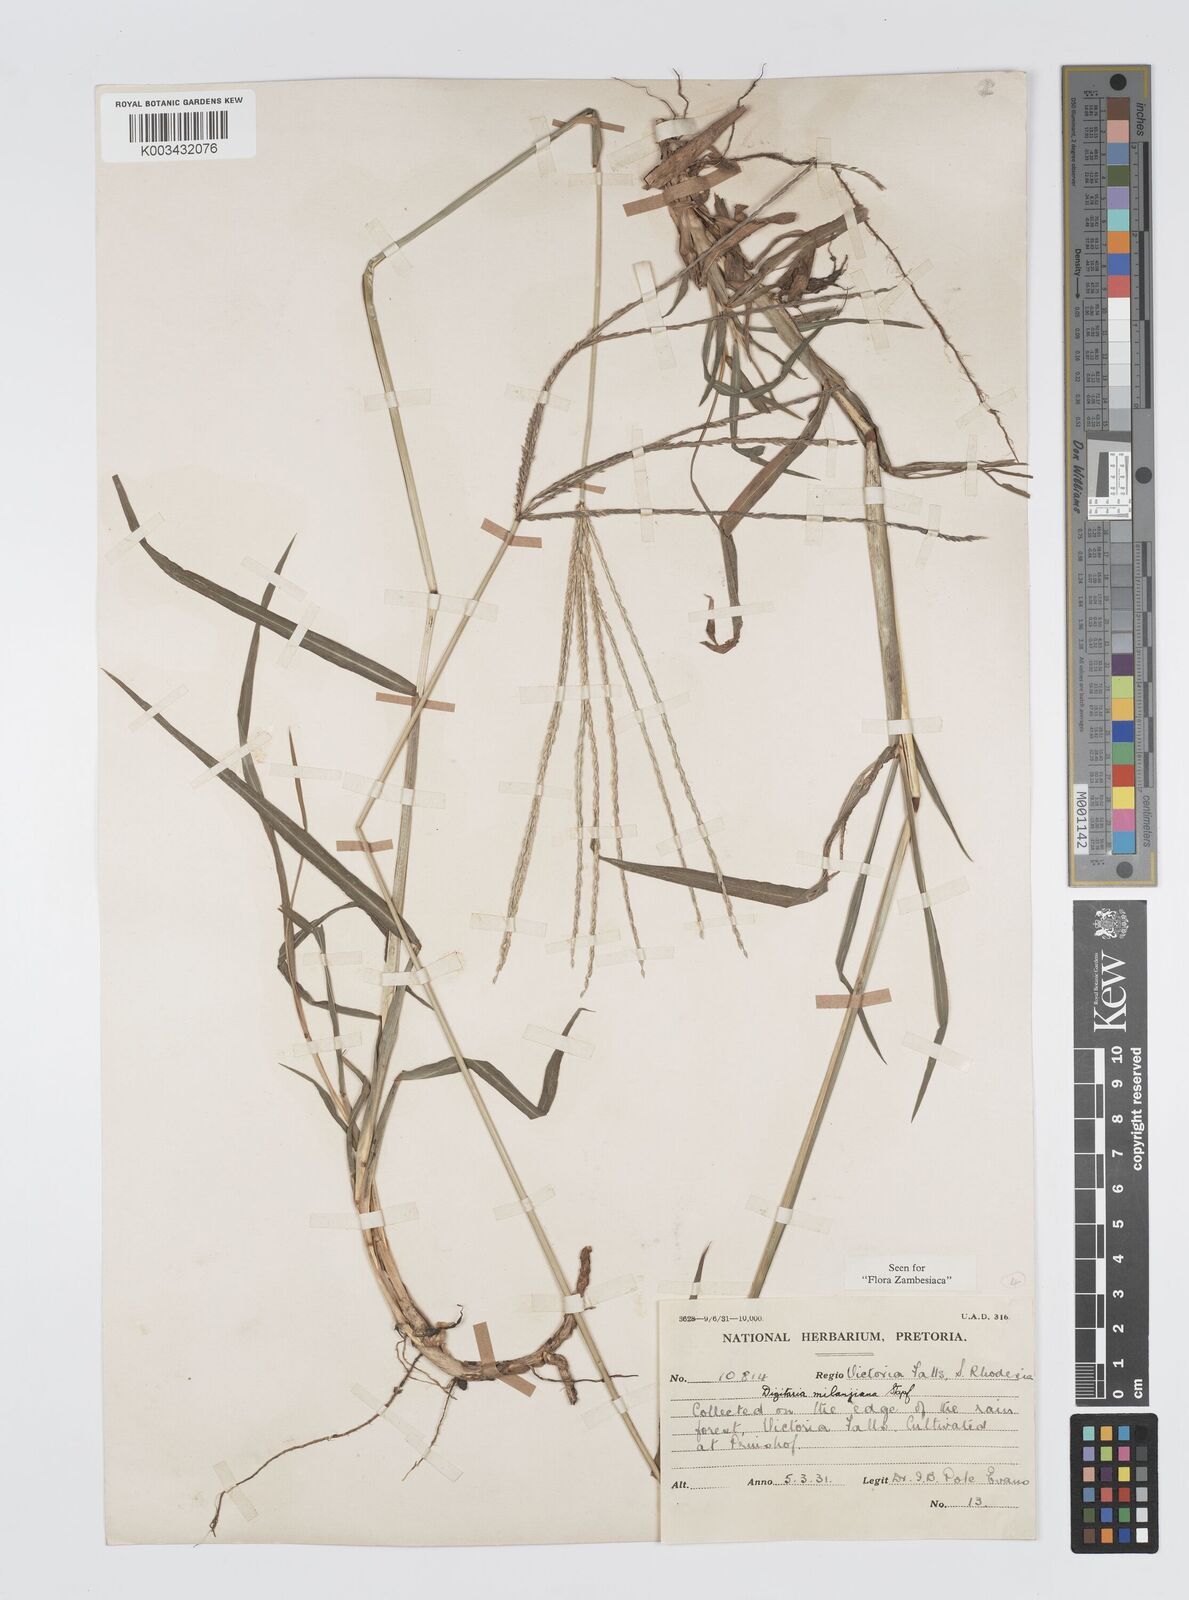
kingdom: Plantae
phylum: Tracheophyta
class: Liliopsida
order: Poales
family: Poaceae
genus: Digitaria
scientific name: Digitaria milanjiana
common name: Madagascar crabgrass
